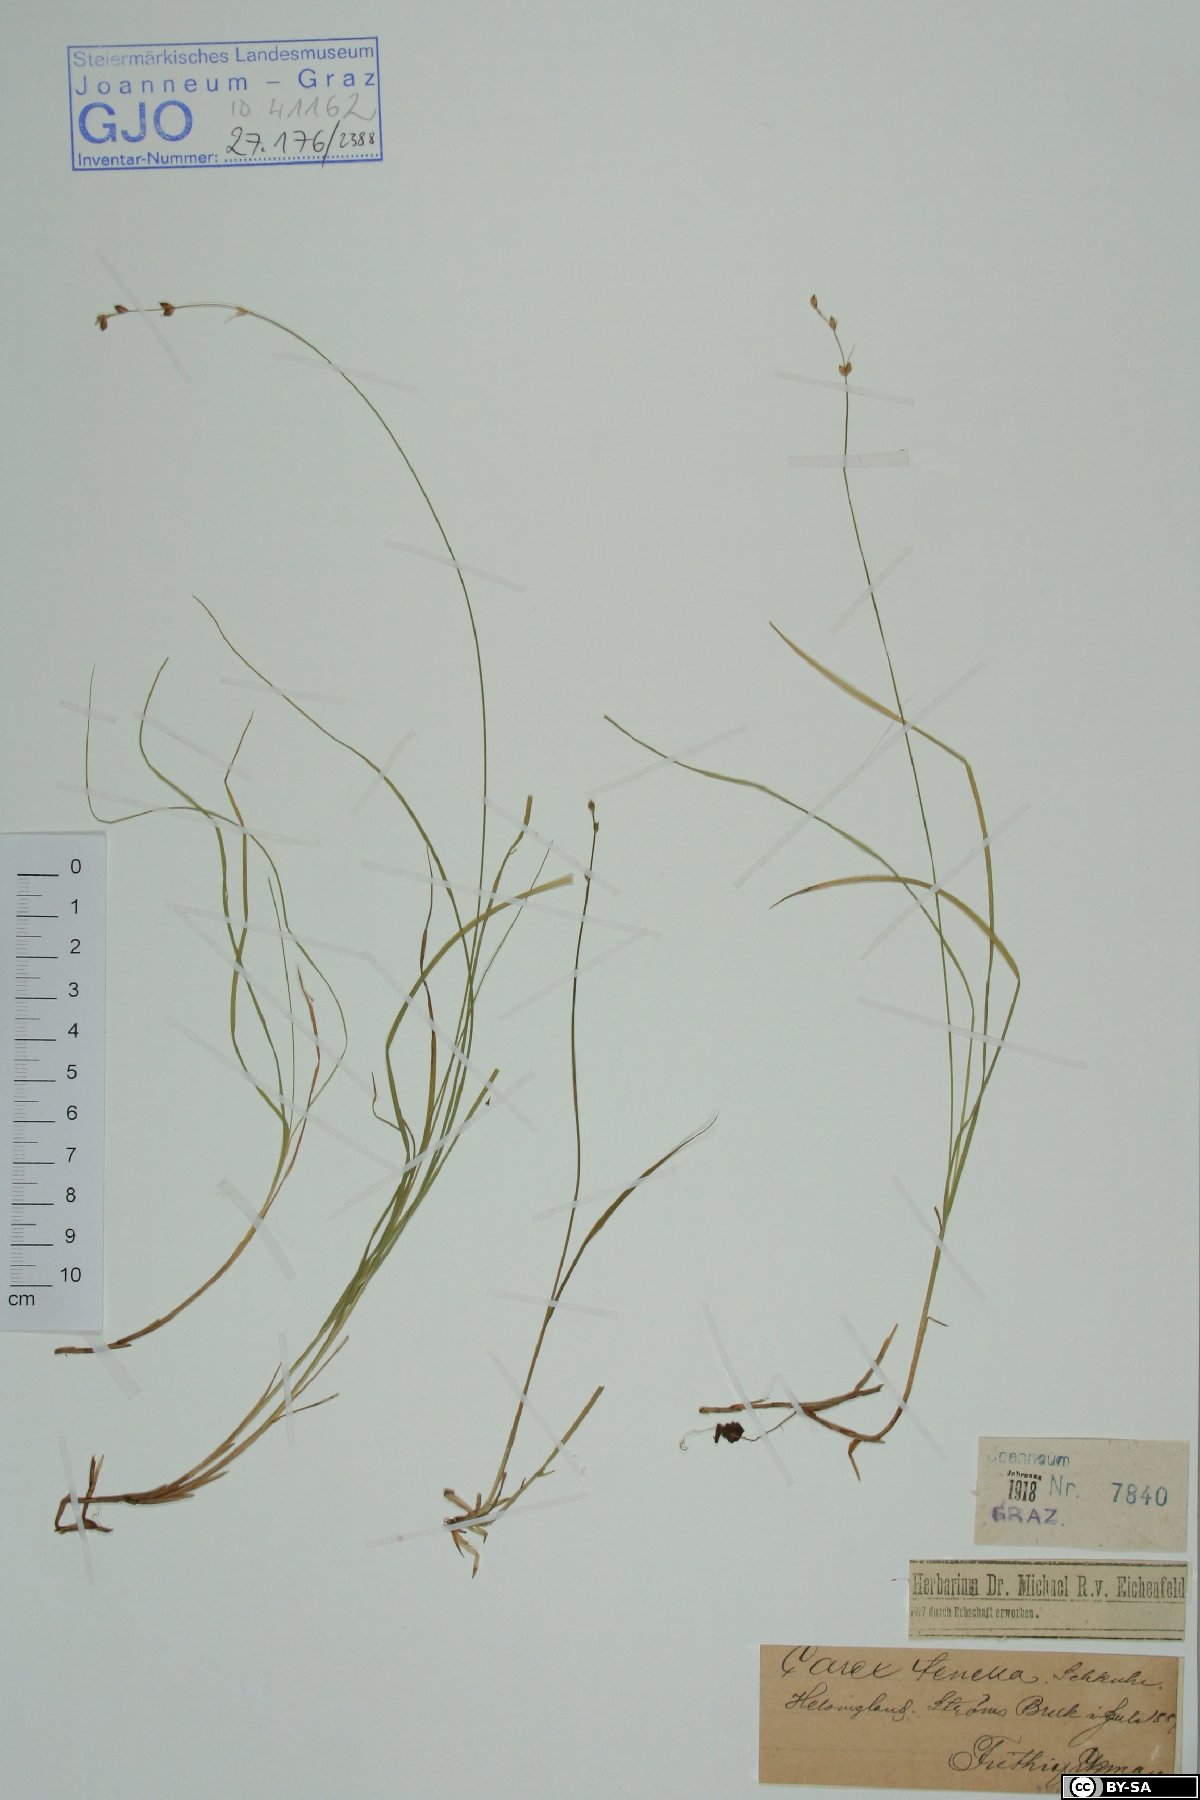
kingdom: Plantae
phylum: Tracheophyta
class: Liliopsida
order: Poales
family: Cyperaceae
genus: Carex
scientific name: Carex disperma
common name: Short-leaved sedge
